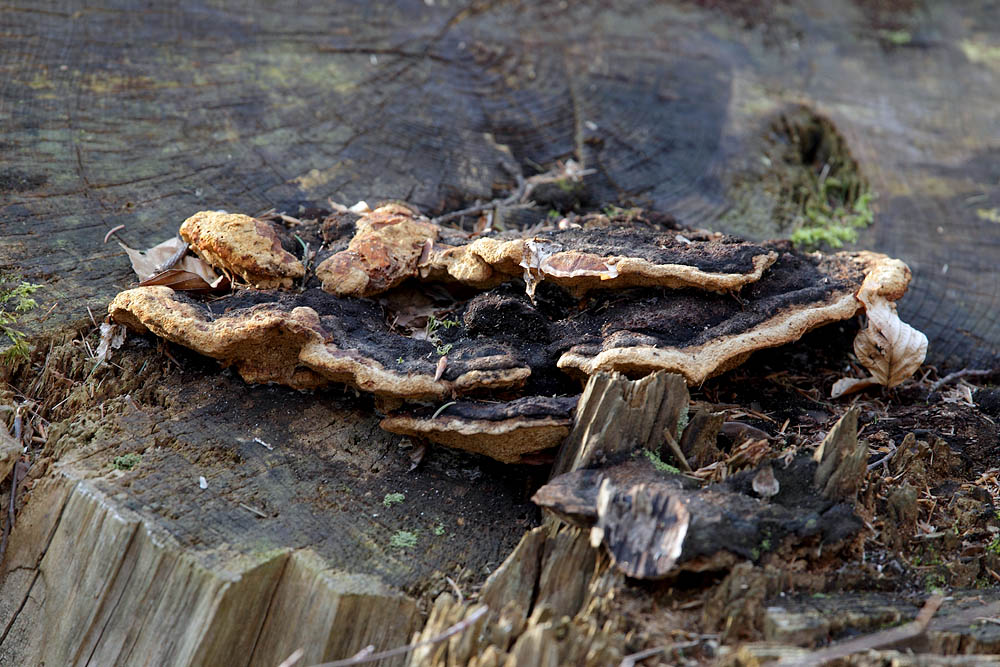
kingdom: Fungi
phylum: Basidiomycota
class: Agaricomycetes
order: Gloeophyllales
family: Gloeophyllaceae
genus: Gloeophyllum
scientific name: Gloeophyllum odoratum
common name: duftende korkhat
